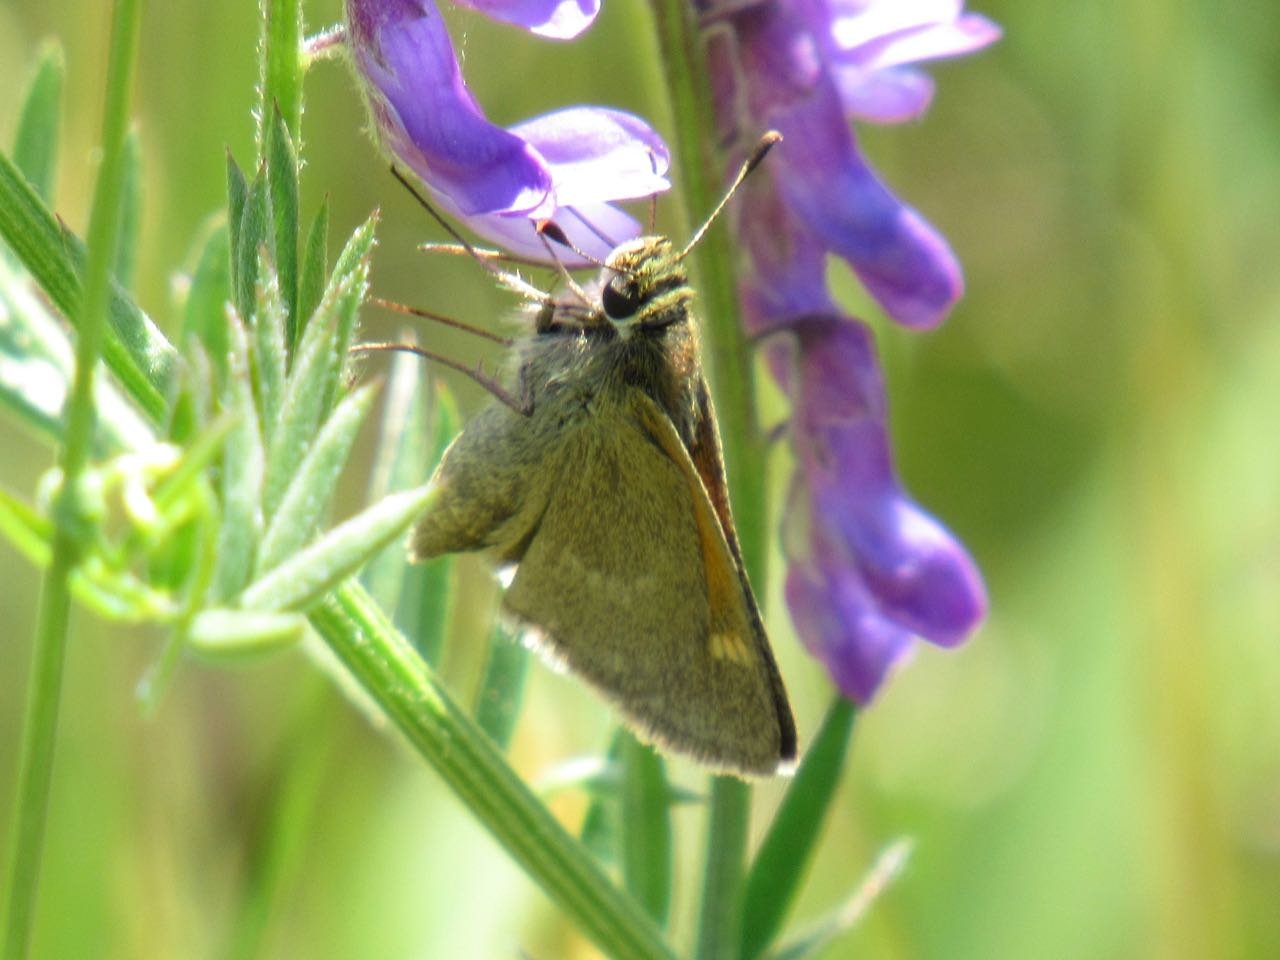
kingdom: Animalia
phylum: Arthropoda
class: Insecta
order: Lepidoptera
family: Hesperiidae
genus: Polites
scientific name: Polites themistocles
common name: Tawny-edged Skipper
